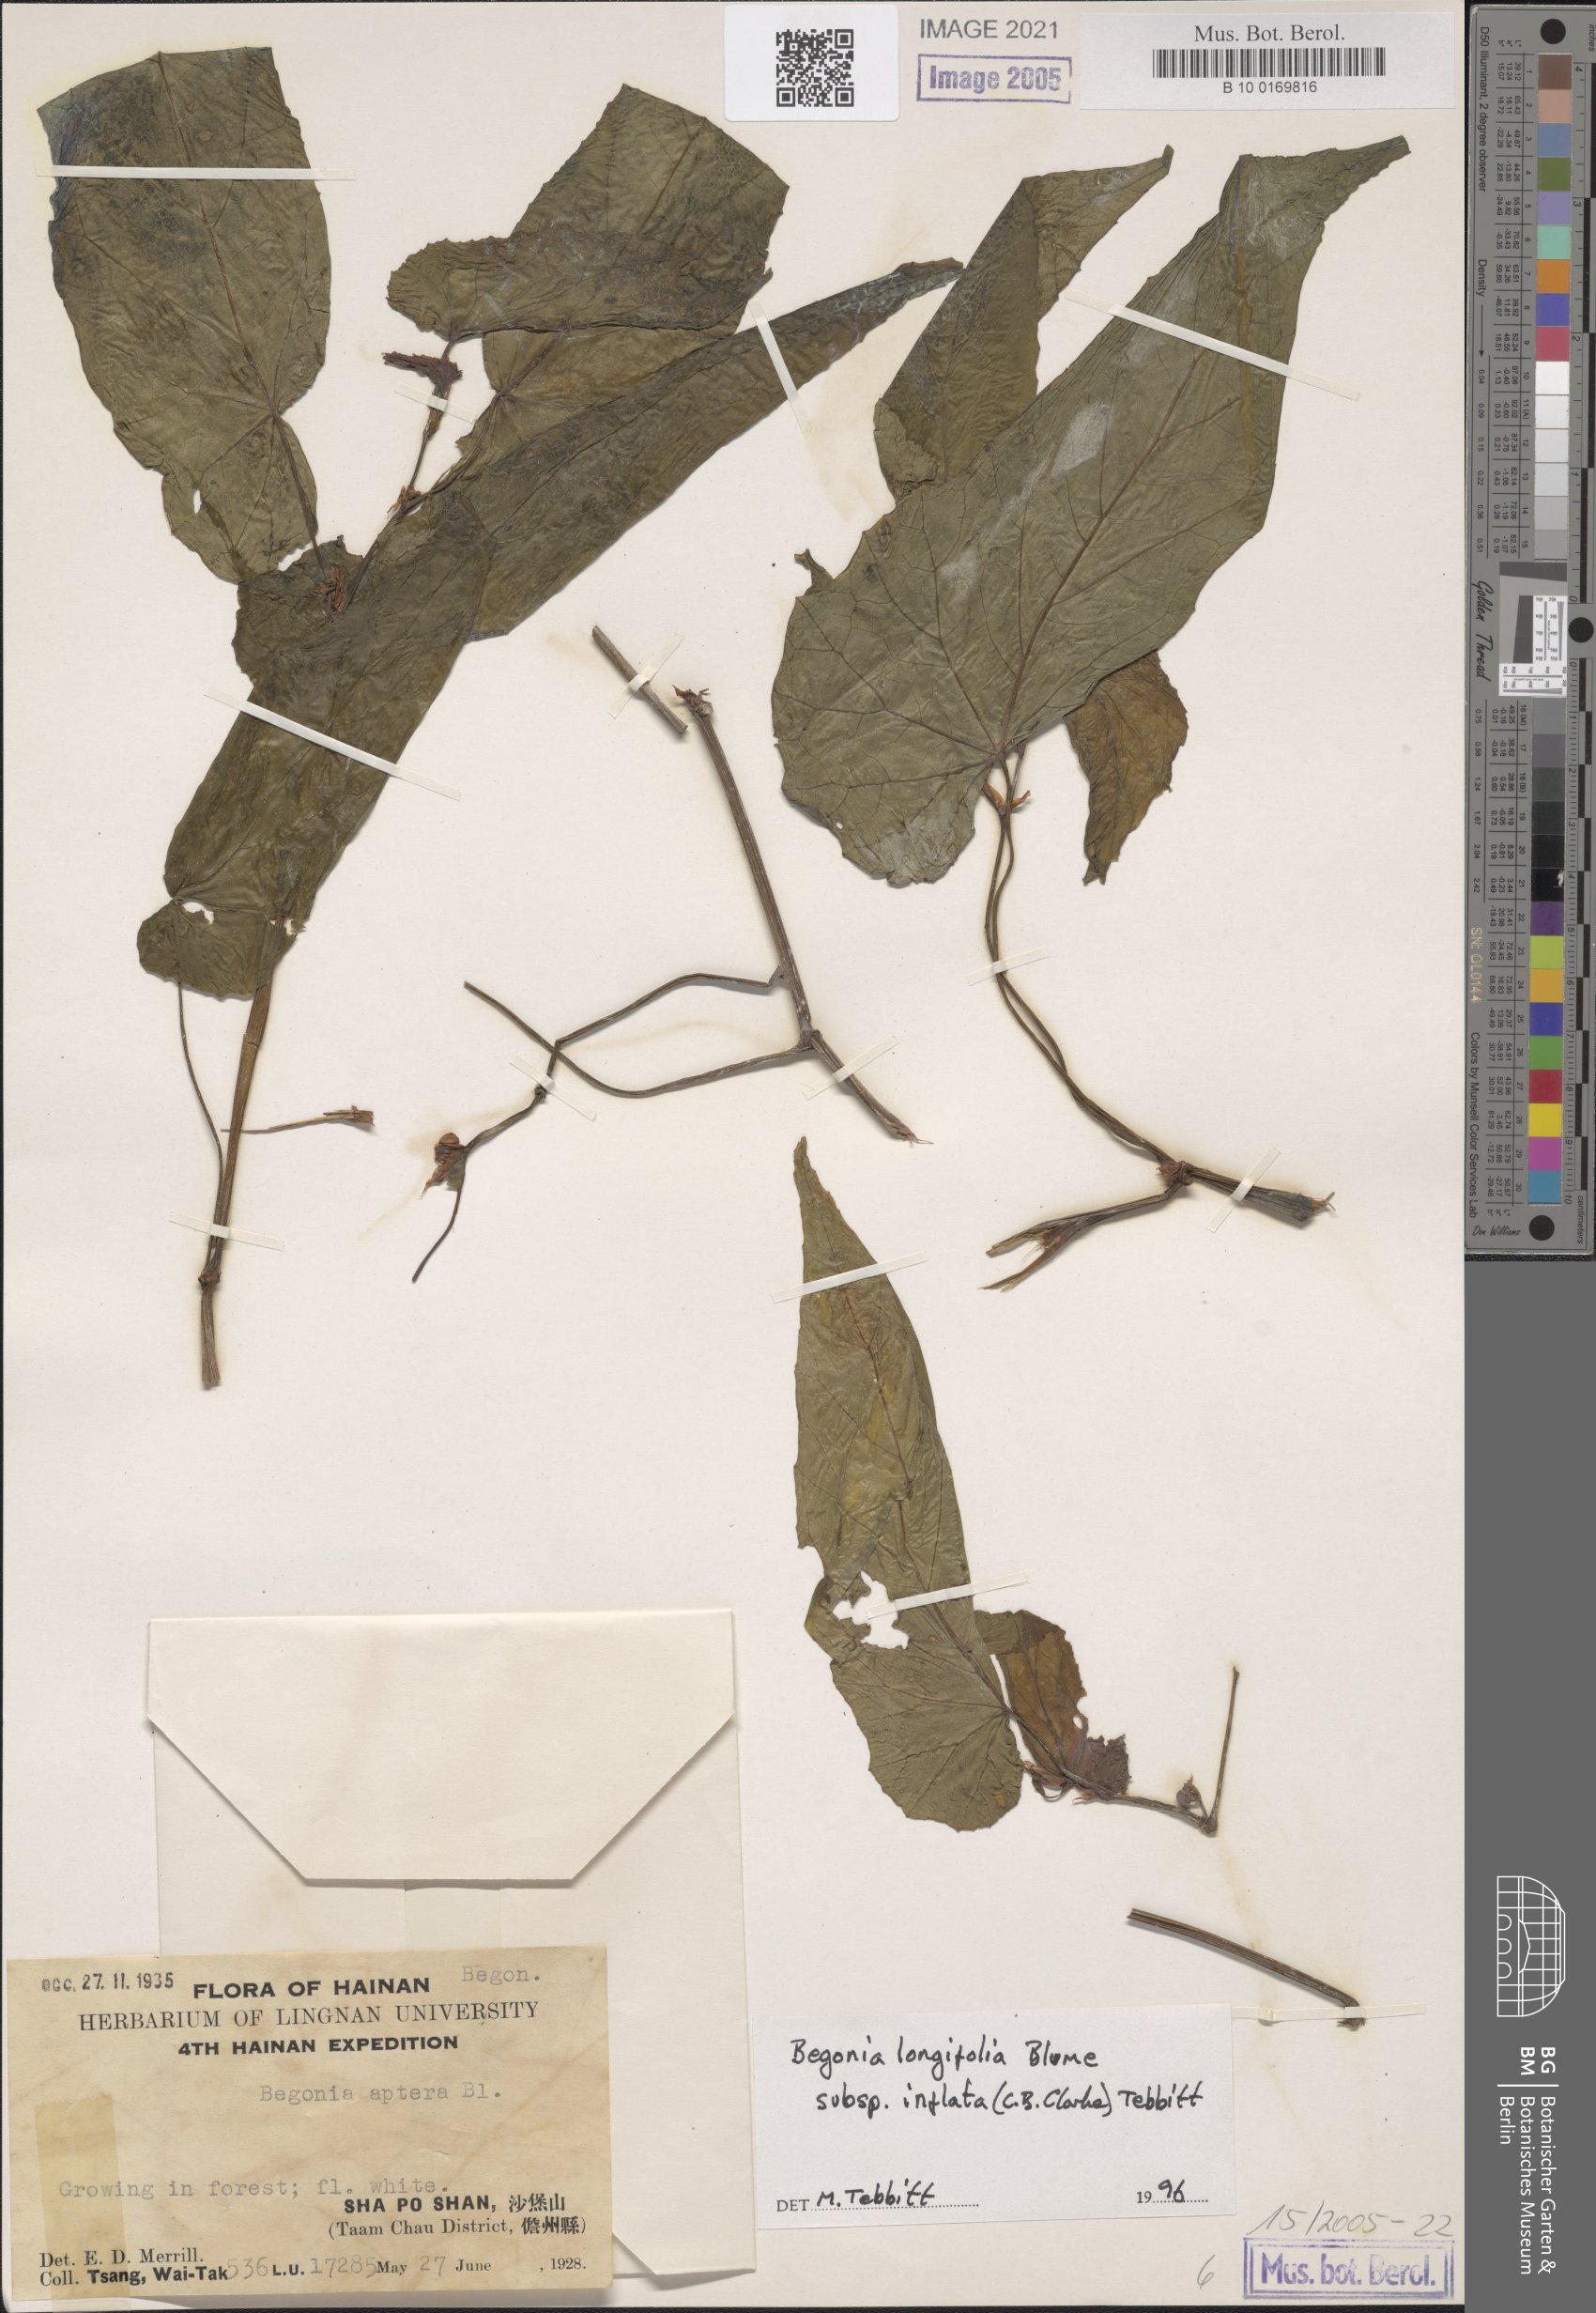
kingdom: Plantae
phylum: Tracheophyta
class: Magnoliopsida
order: Cucurbitales
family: Begoniaceae
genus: Begonia
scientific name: Begonia longifolia
